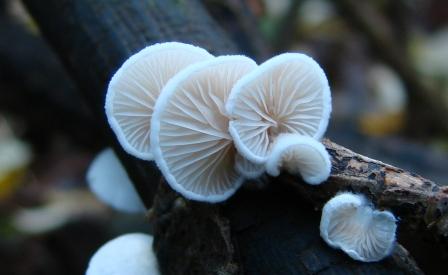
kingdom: Fungi
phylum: Basidiomycota
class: Agaricomycetes
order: Agaricales
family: Crepidotaceae
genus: Crepidotus
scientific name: Crepidotus cesatii
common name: almindelig muslingesvamp
